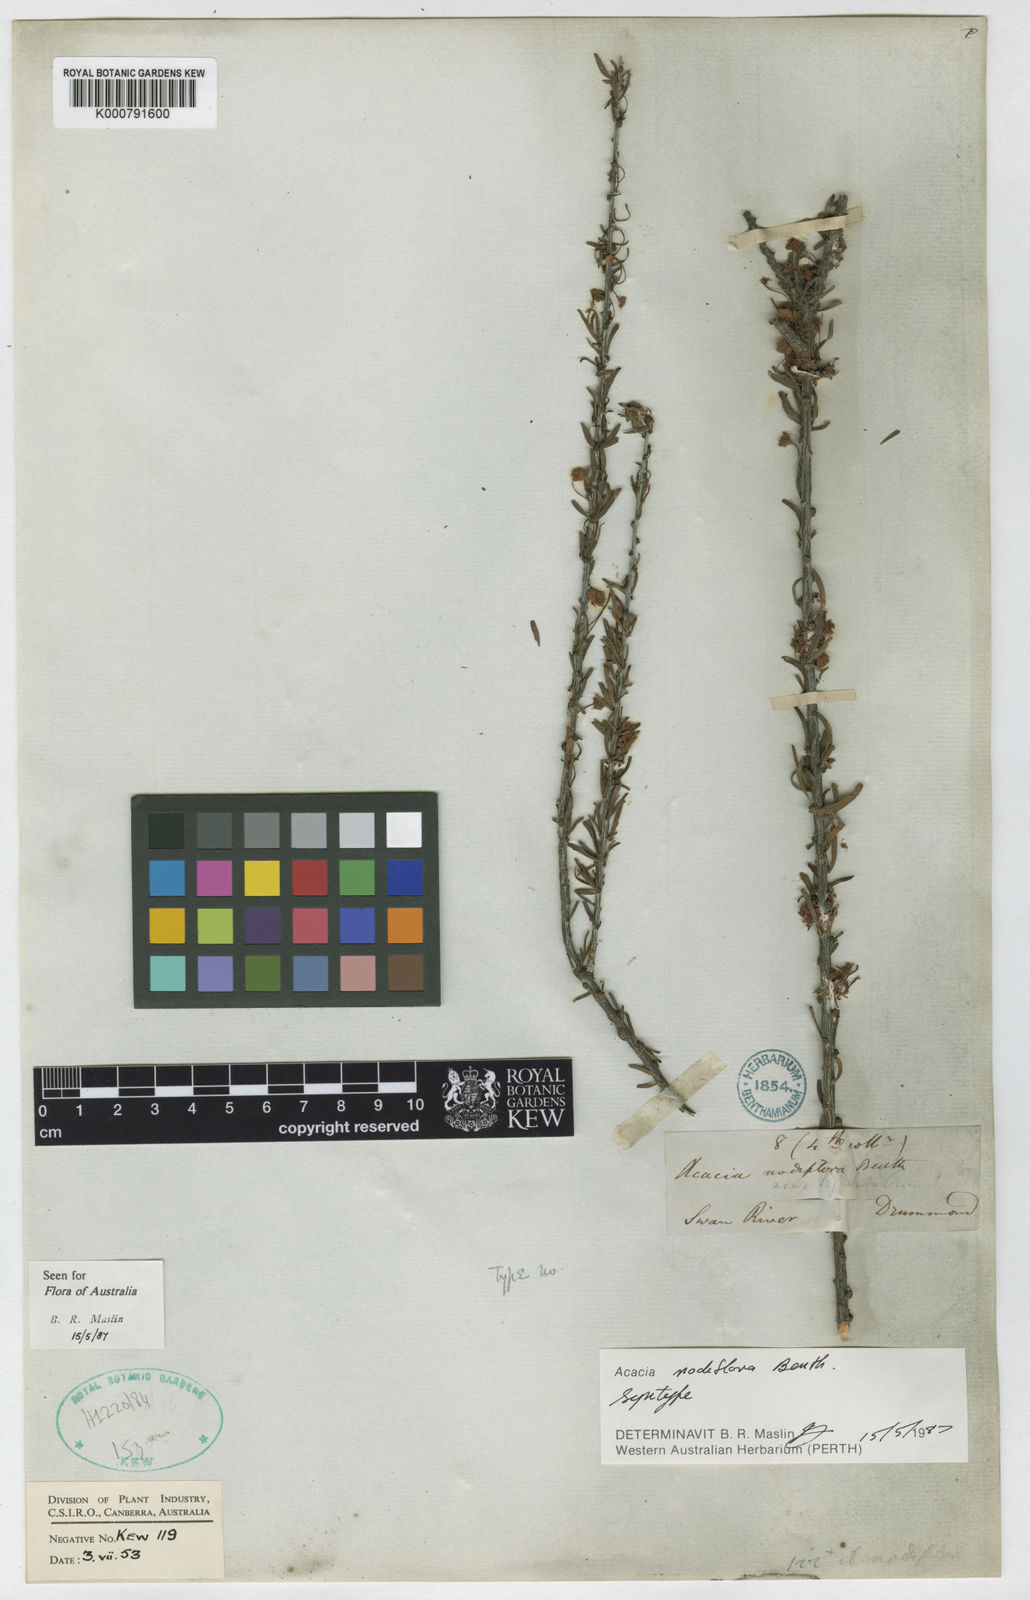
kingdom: Plantae
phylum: Tracheophyta
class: Magnoliopsida
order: Fabales
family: Fabaceae
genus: Acacia
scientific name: Acacia nodiflora
